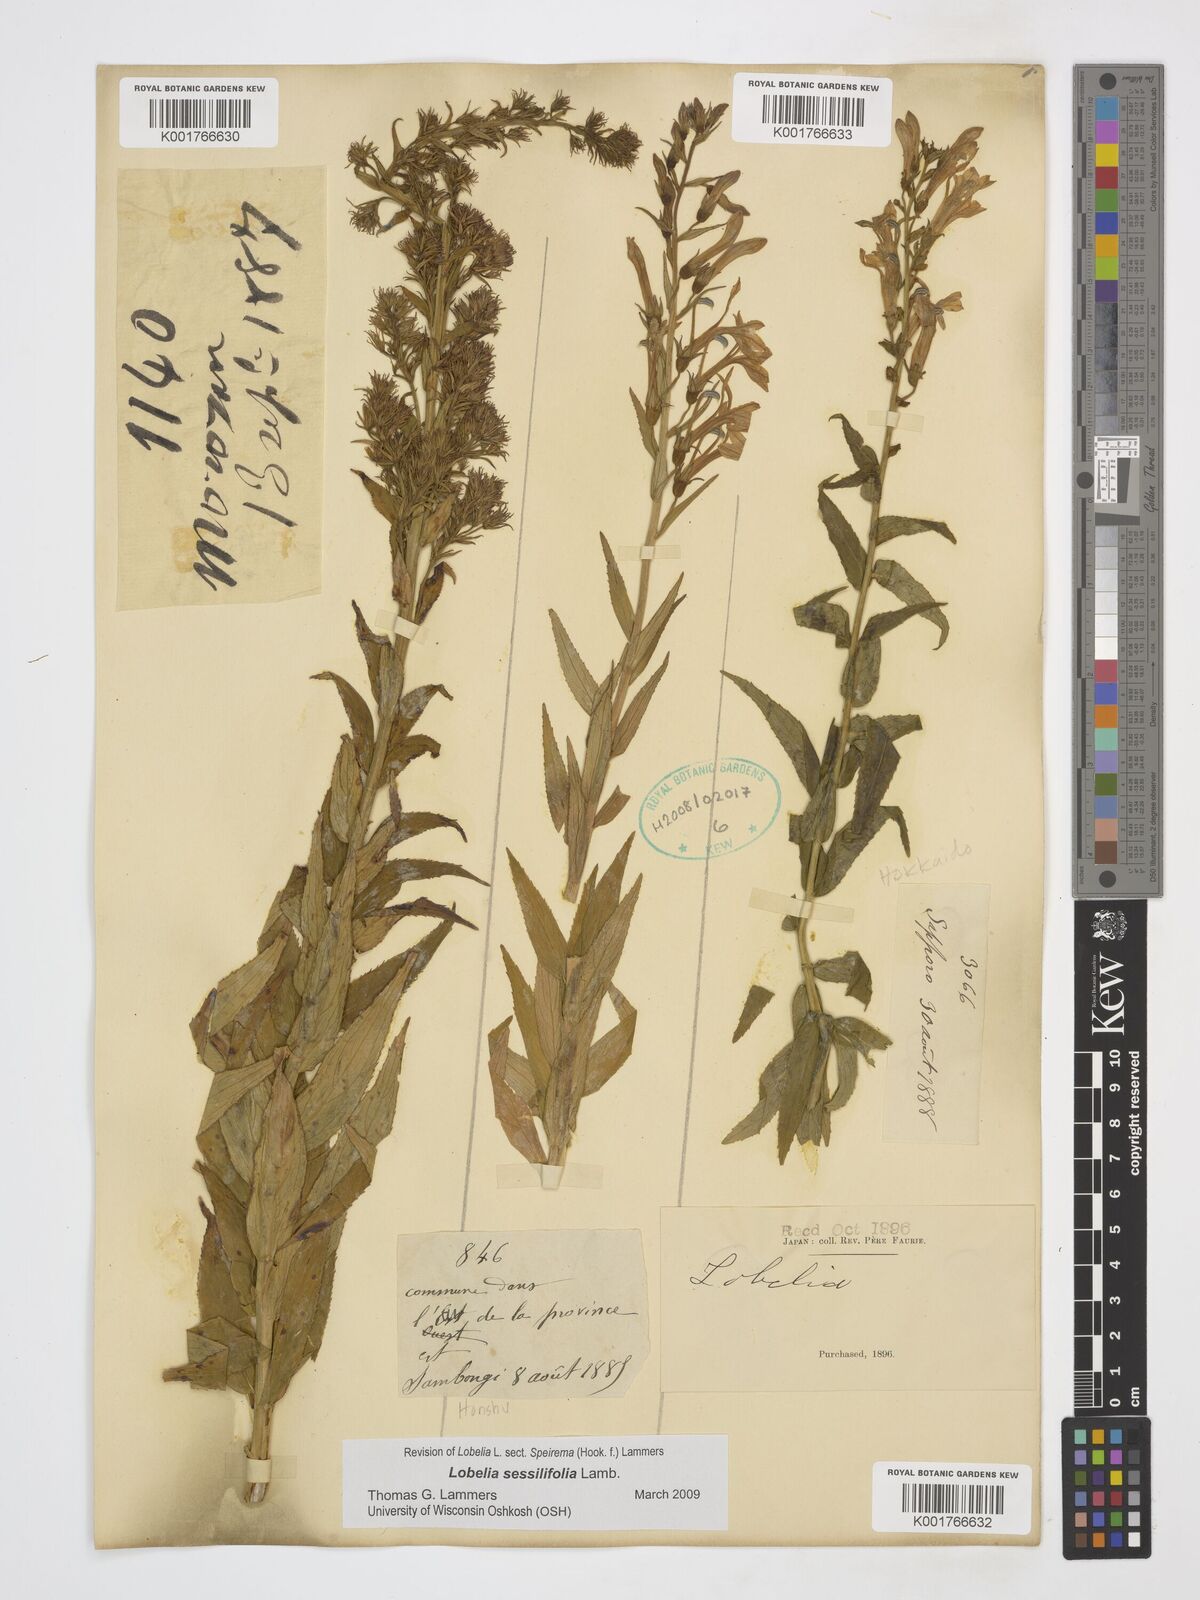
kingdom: Plantae
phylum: Tracheophyta
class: Magnoliopsida
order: Asterales
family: Campanulaceae
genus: Lobelia
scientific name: Lobelia sessilifolia
